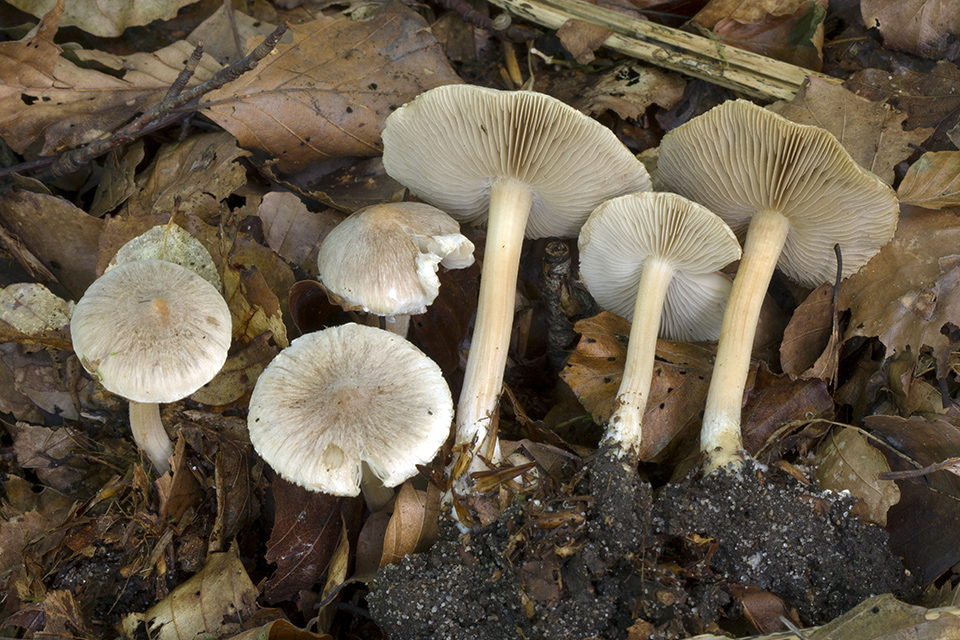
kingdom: Fungi
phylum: Basidiomycota
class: Agaricomycetes
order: Agaricales
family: Inocybaceae
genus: Inocybe
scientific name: Inocybe sindonia
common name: bleg trævlhat
